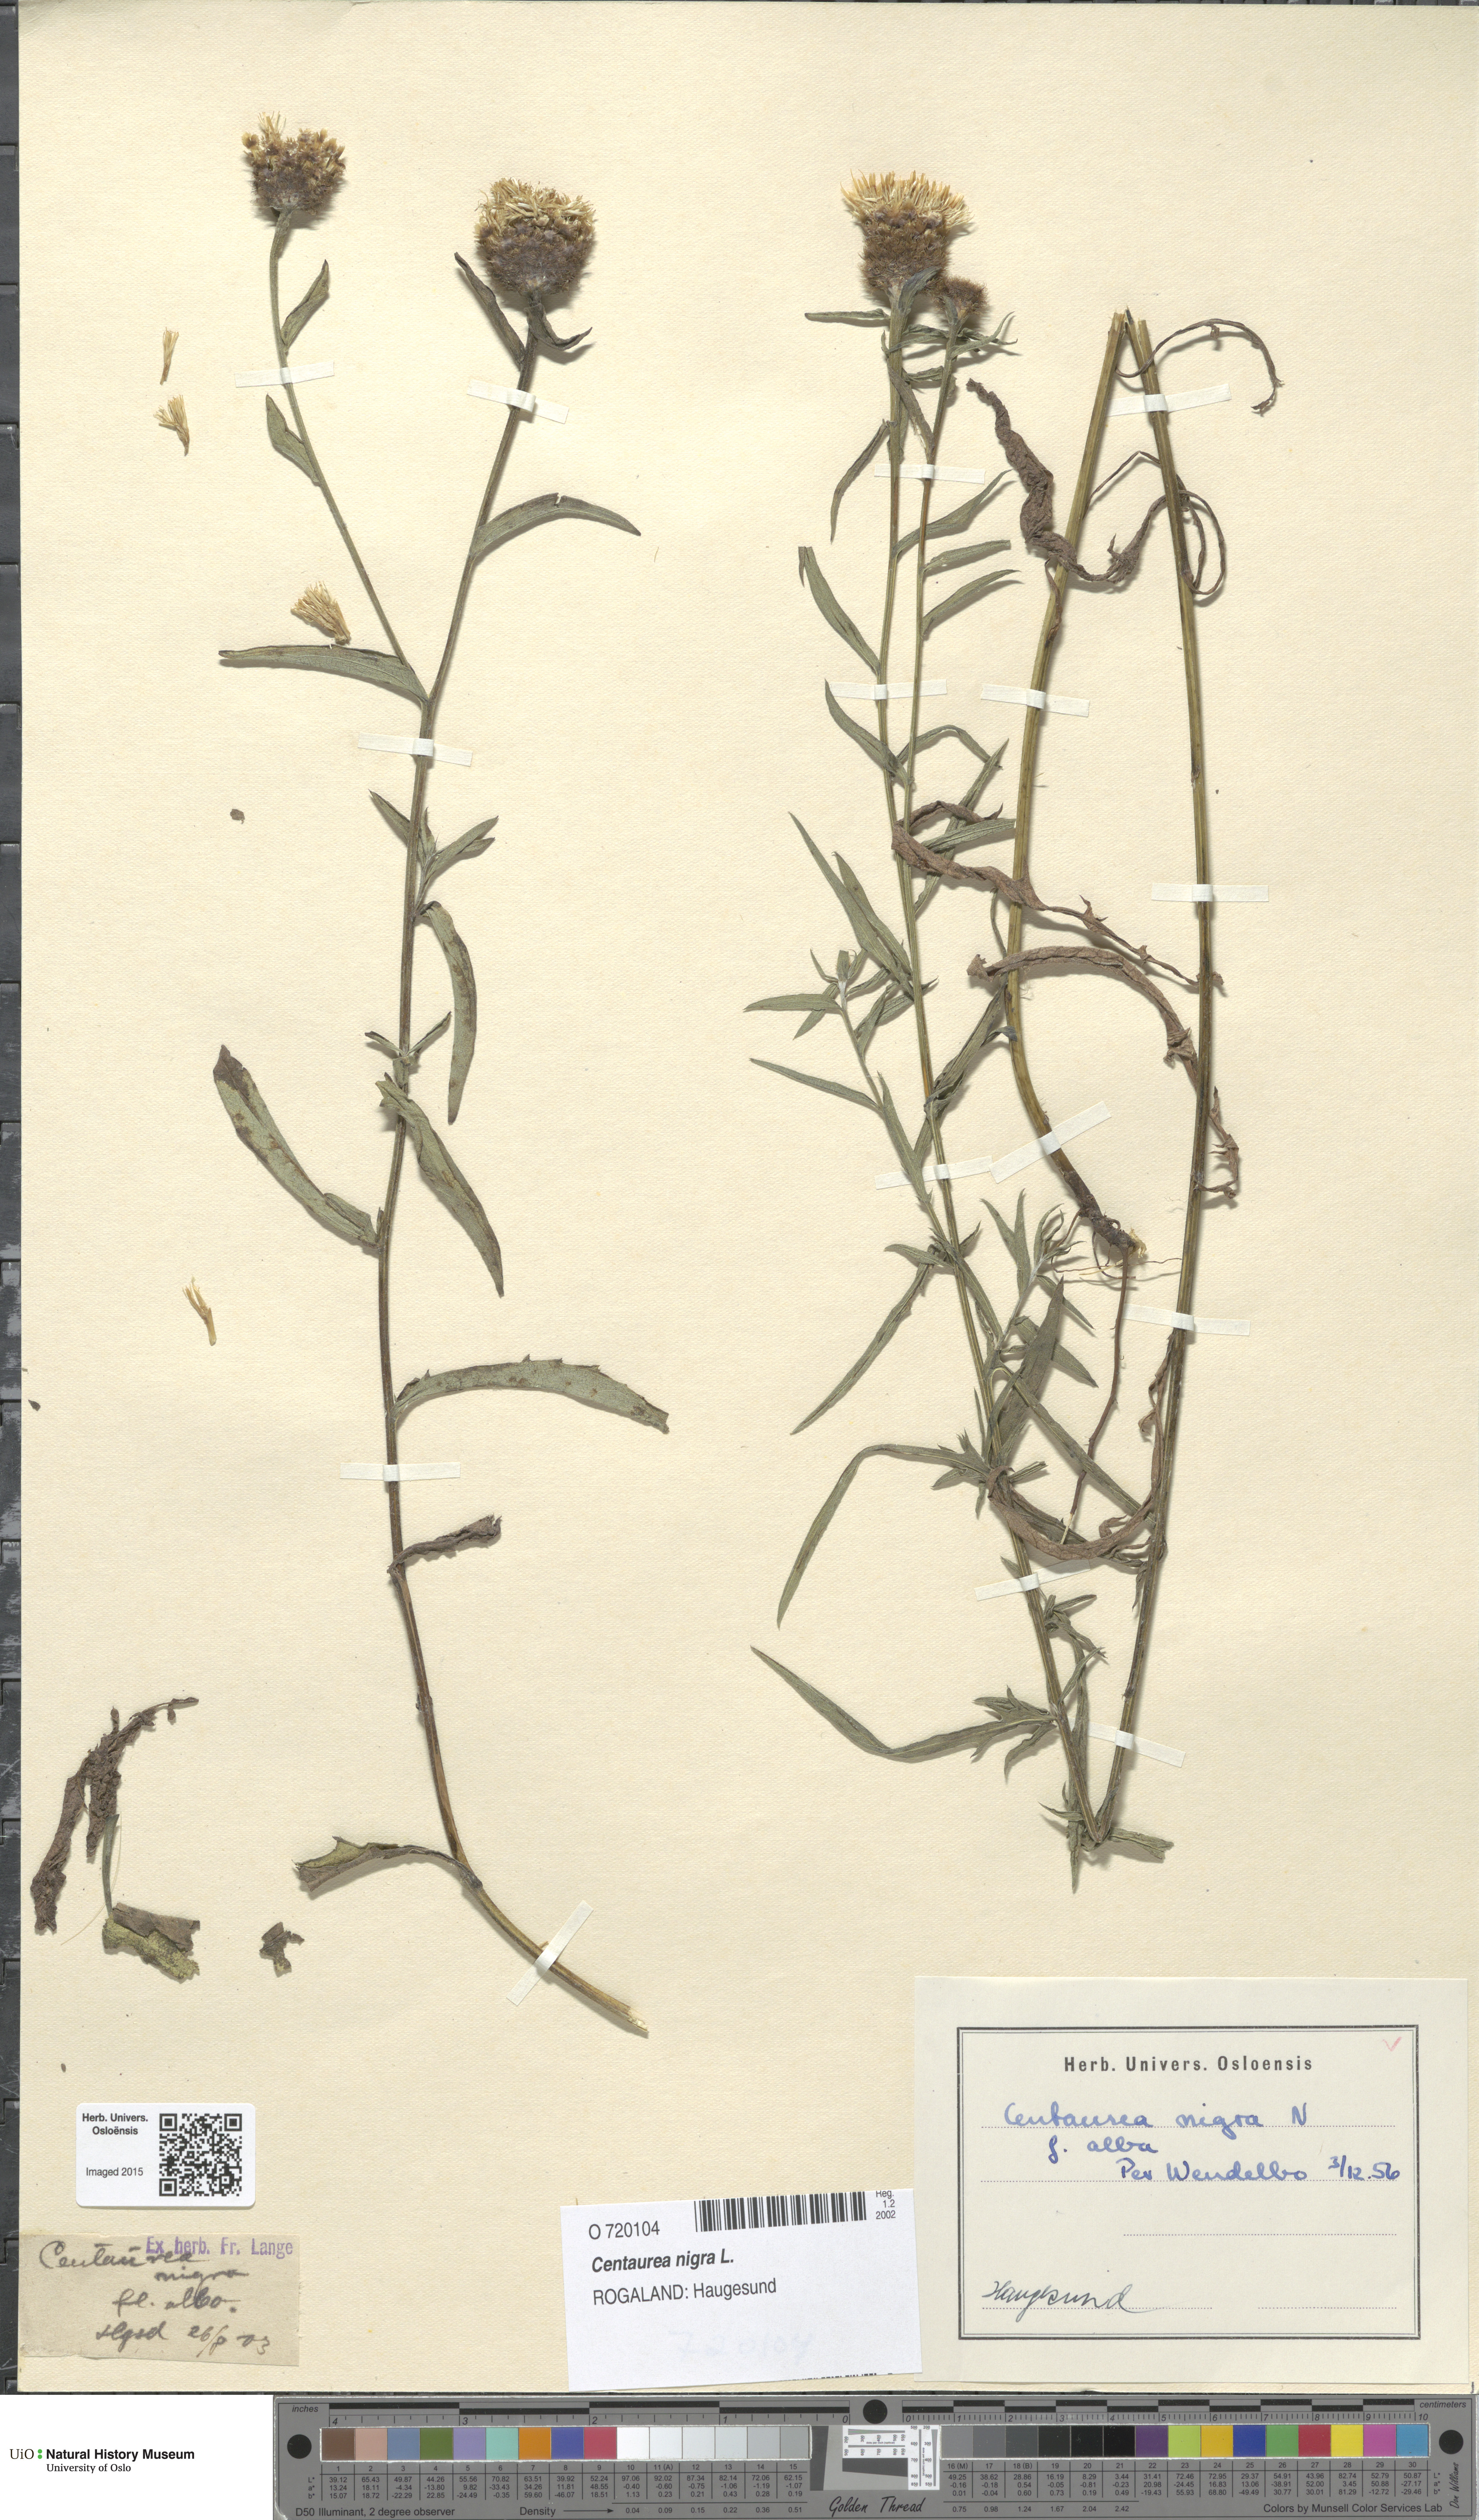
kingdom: Plantae
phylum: Tracheophyta
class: Magnoliopsida
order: Asterales
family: Asteraceae
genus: Centaurea
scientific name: Centaurea nigra
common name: Lesser knapweed
